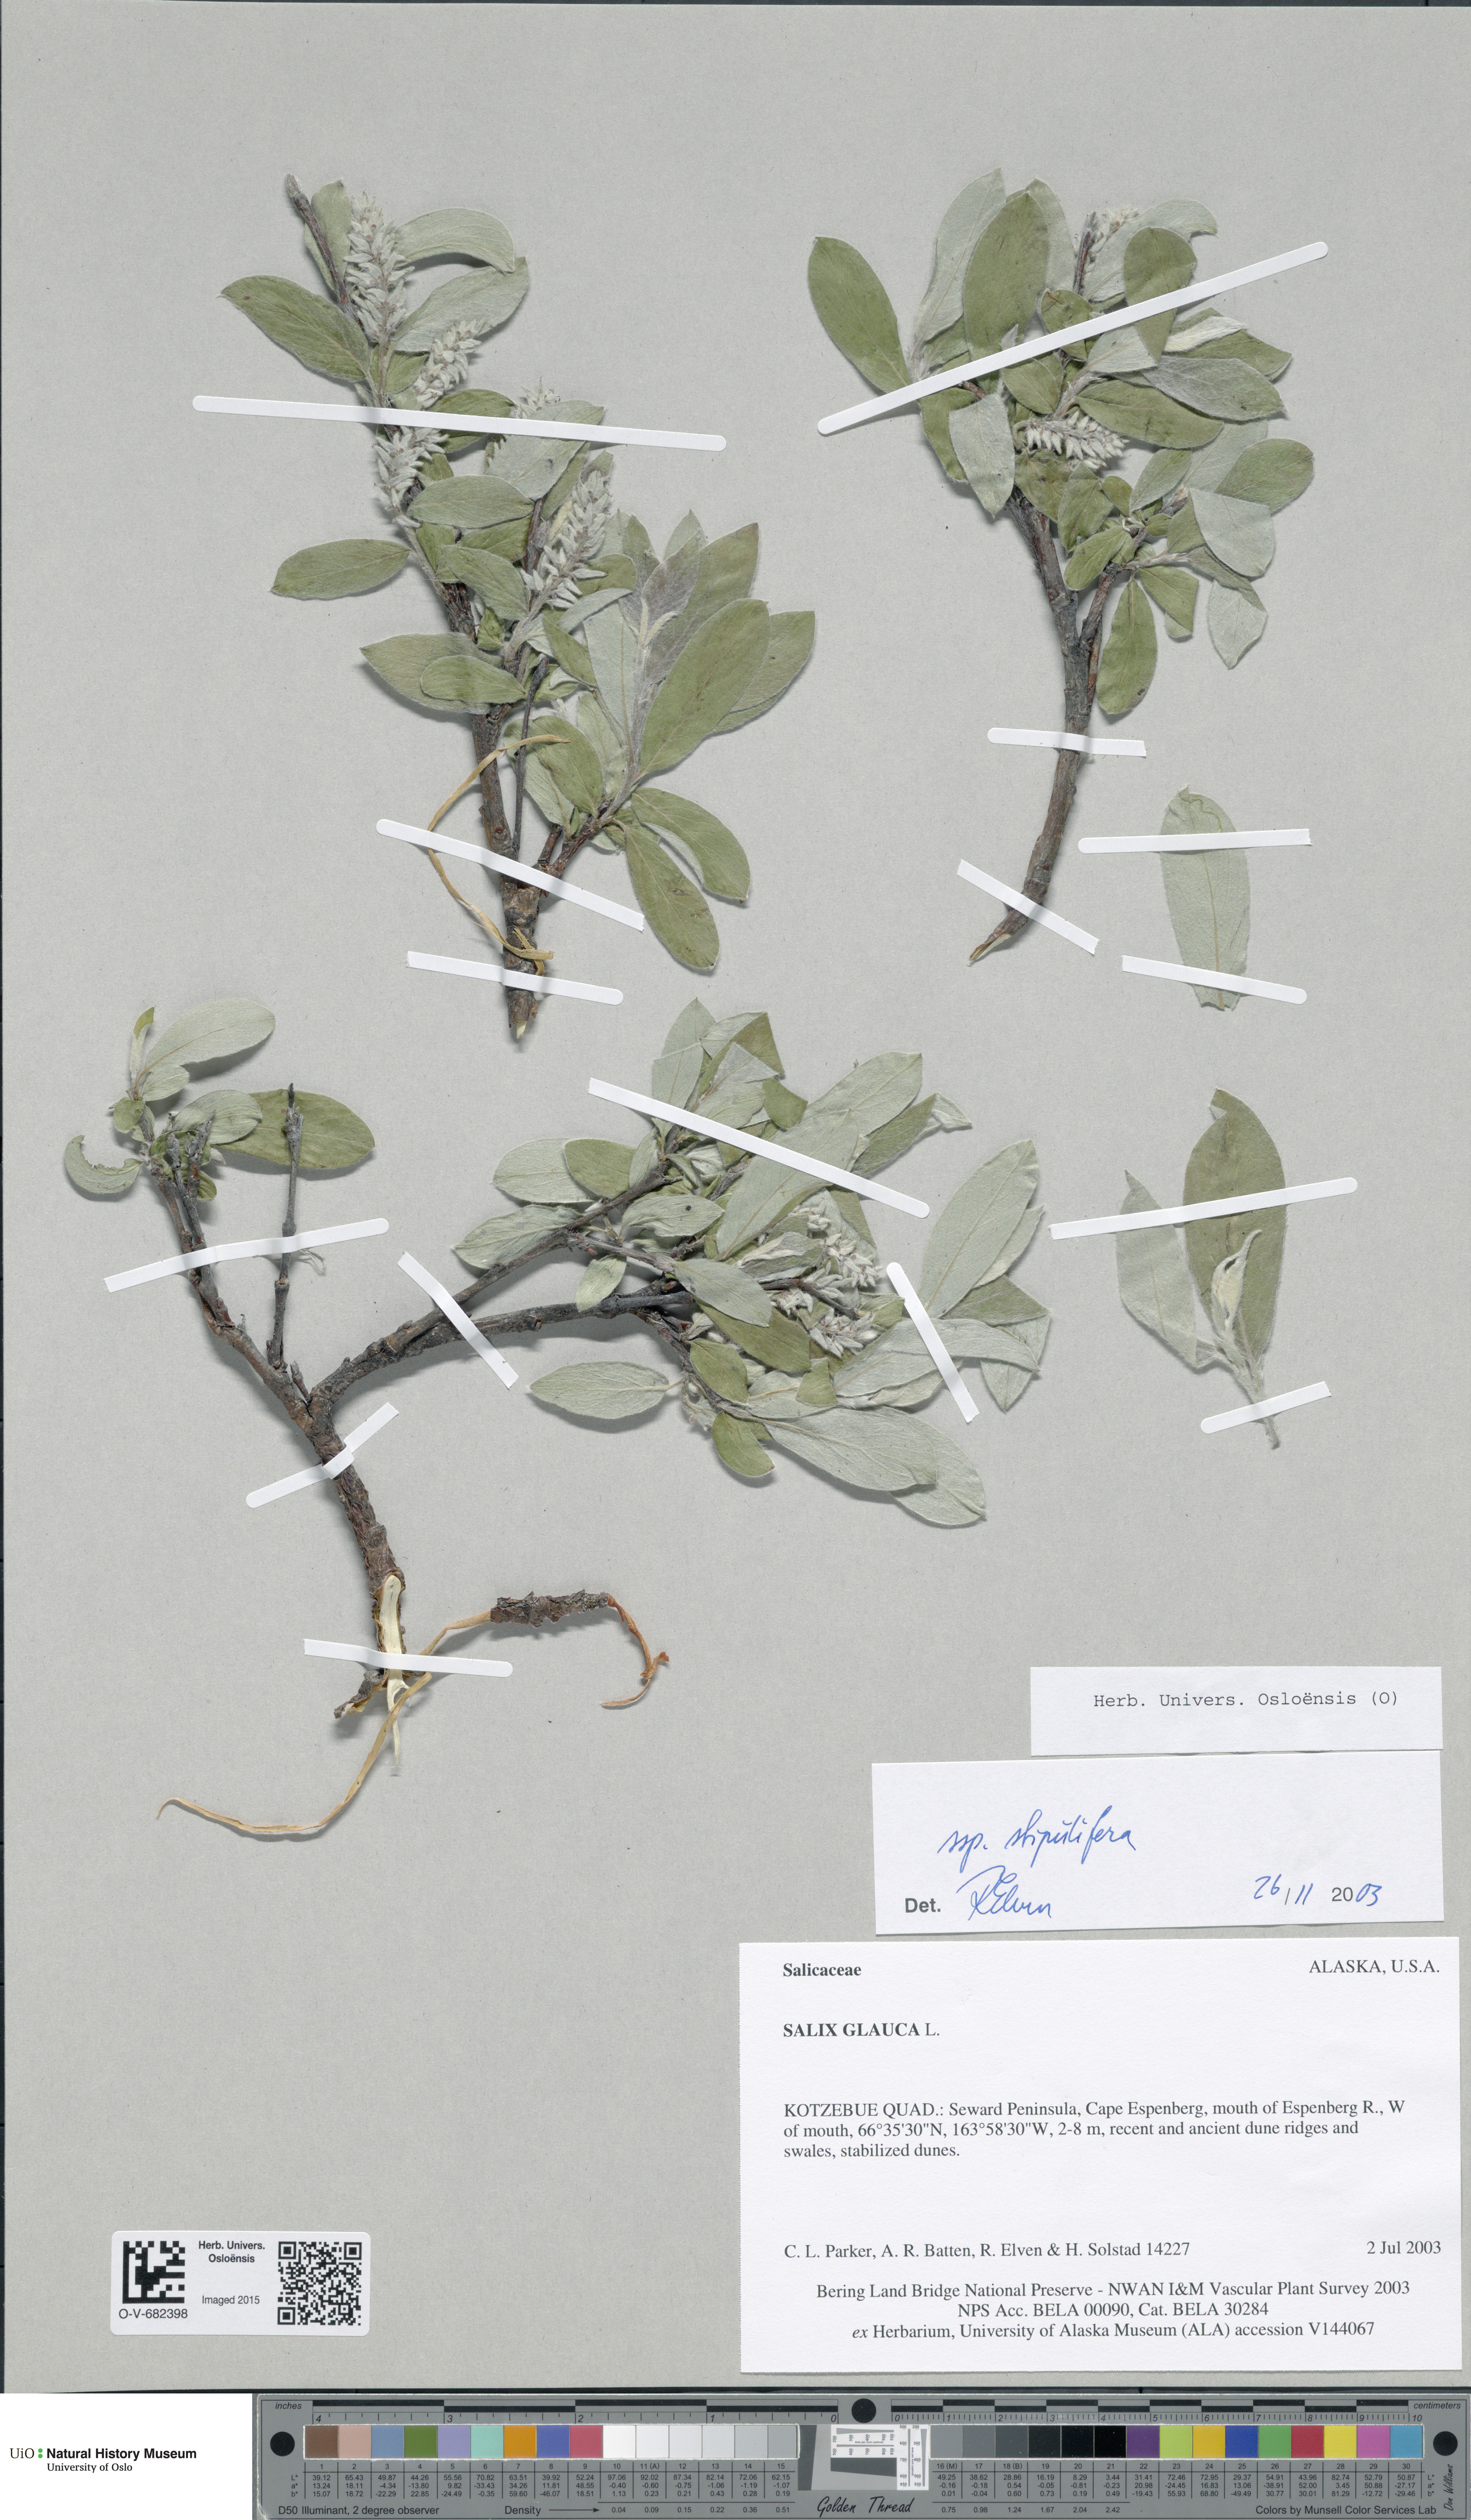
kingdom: Plantae
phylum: Tracheophyta
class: Magnoliopsida
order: Malpighiales
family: Salicaceae
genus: Salix
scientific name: Salix glauca
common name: Glaucous willow
